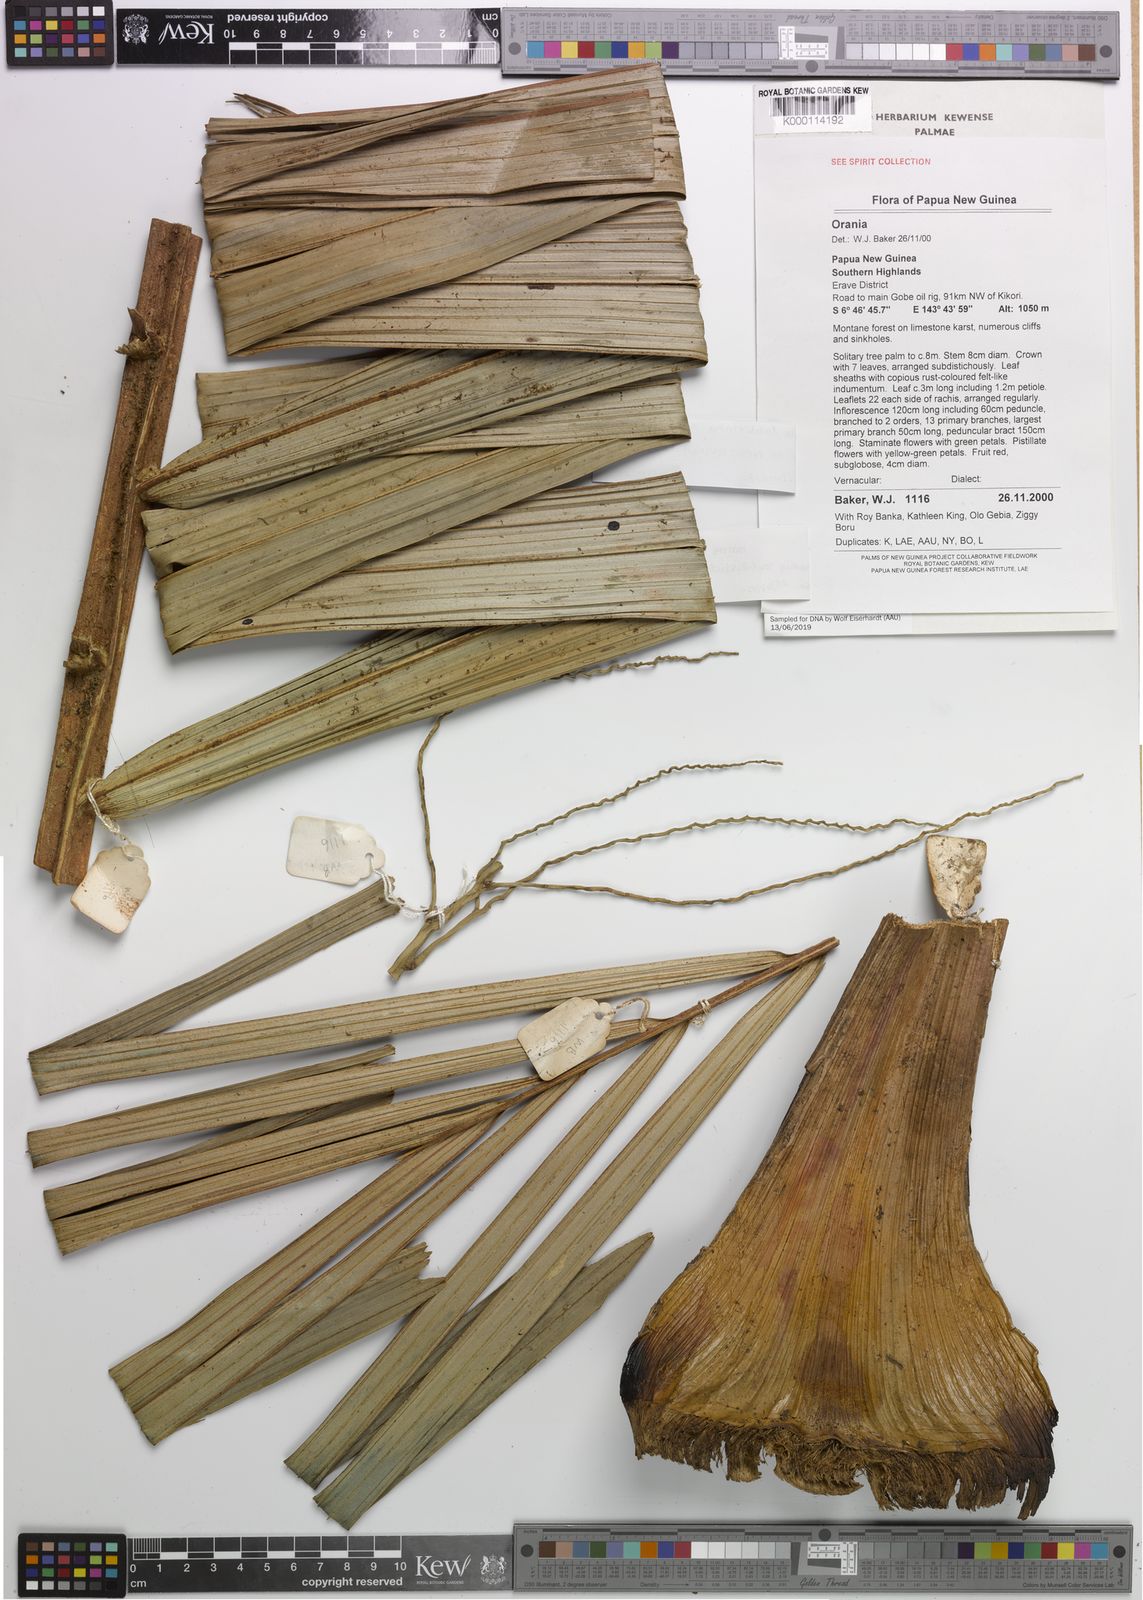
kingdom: Plantae
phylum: Tracheophyta
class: Liliopsida
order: Arecales
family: Arecaceae
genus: Orania
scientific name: Orania subdisticha
